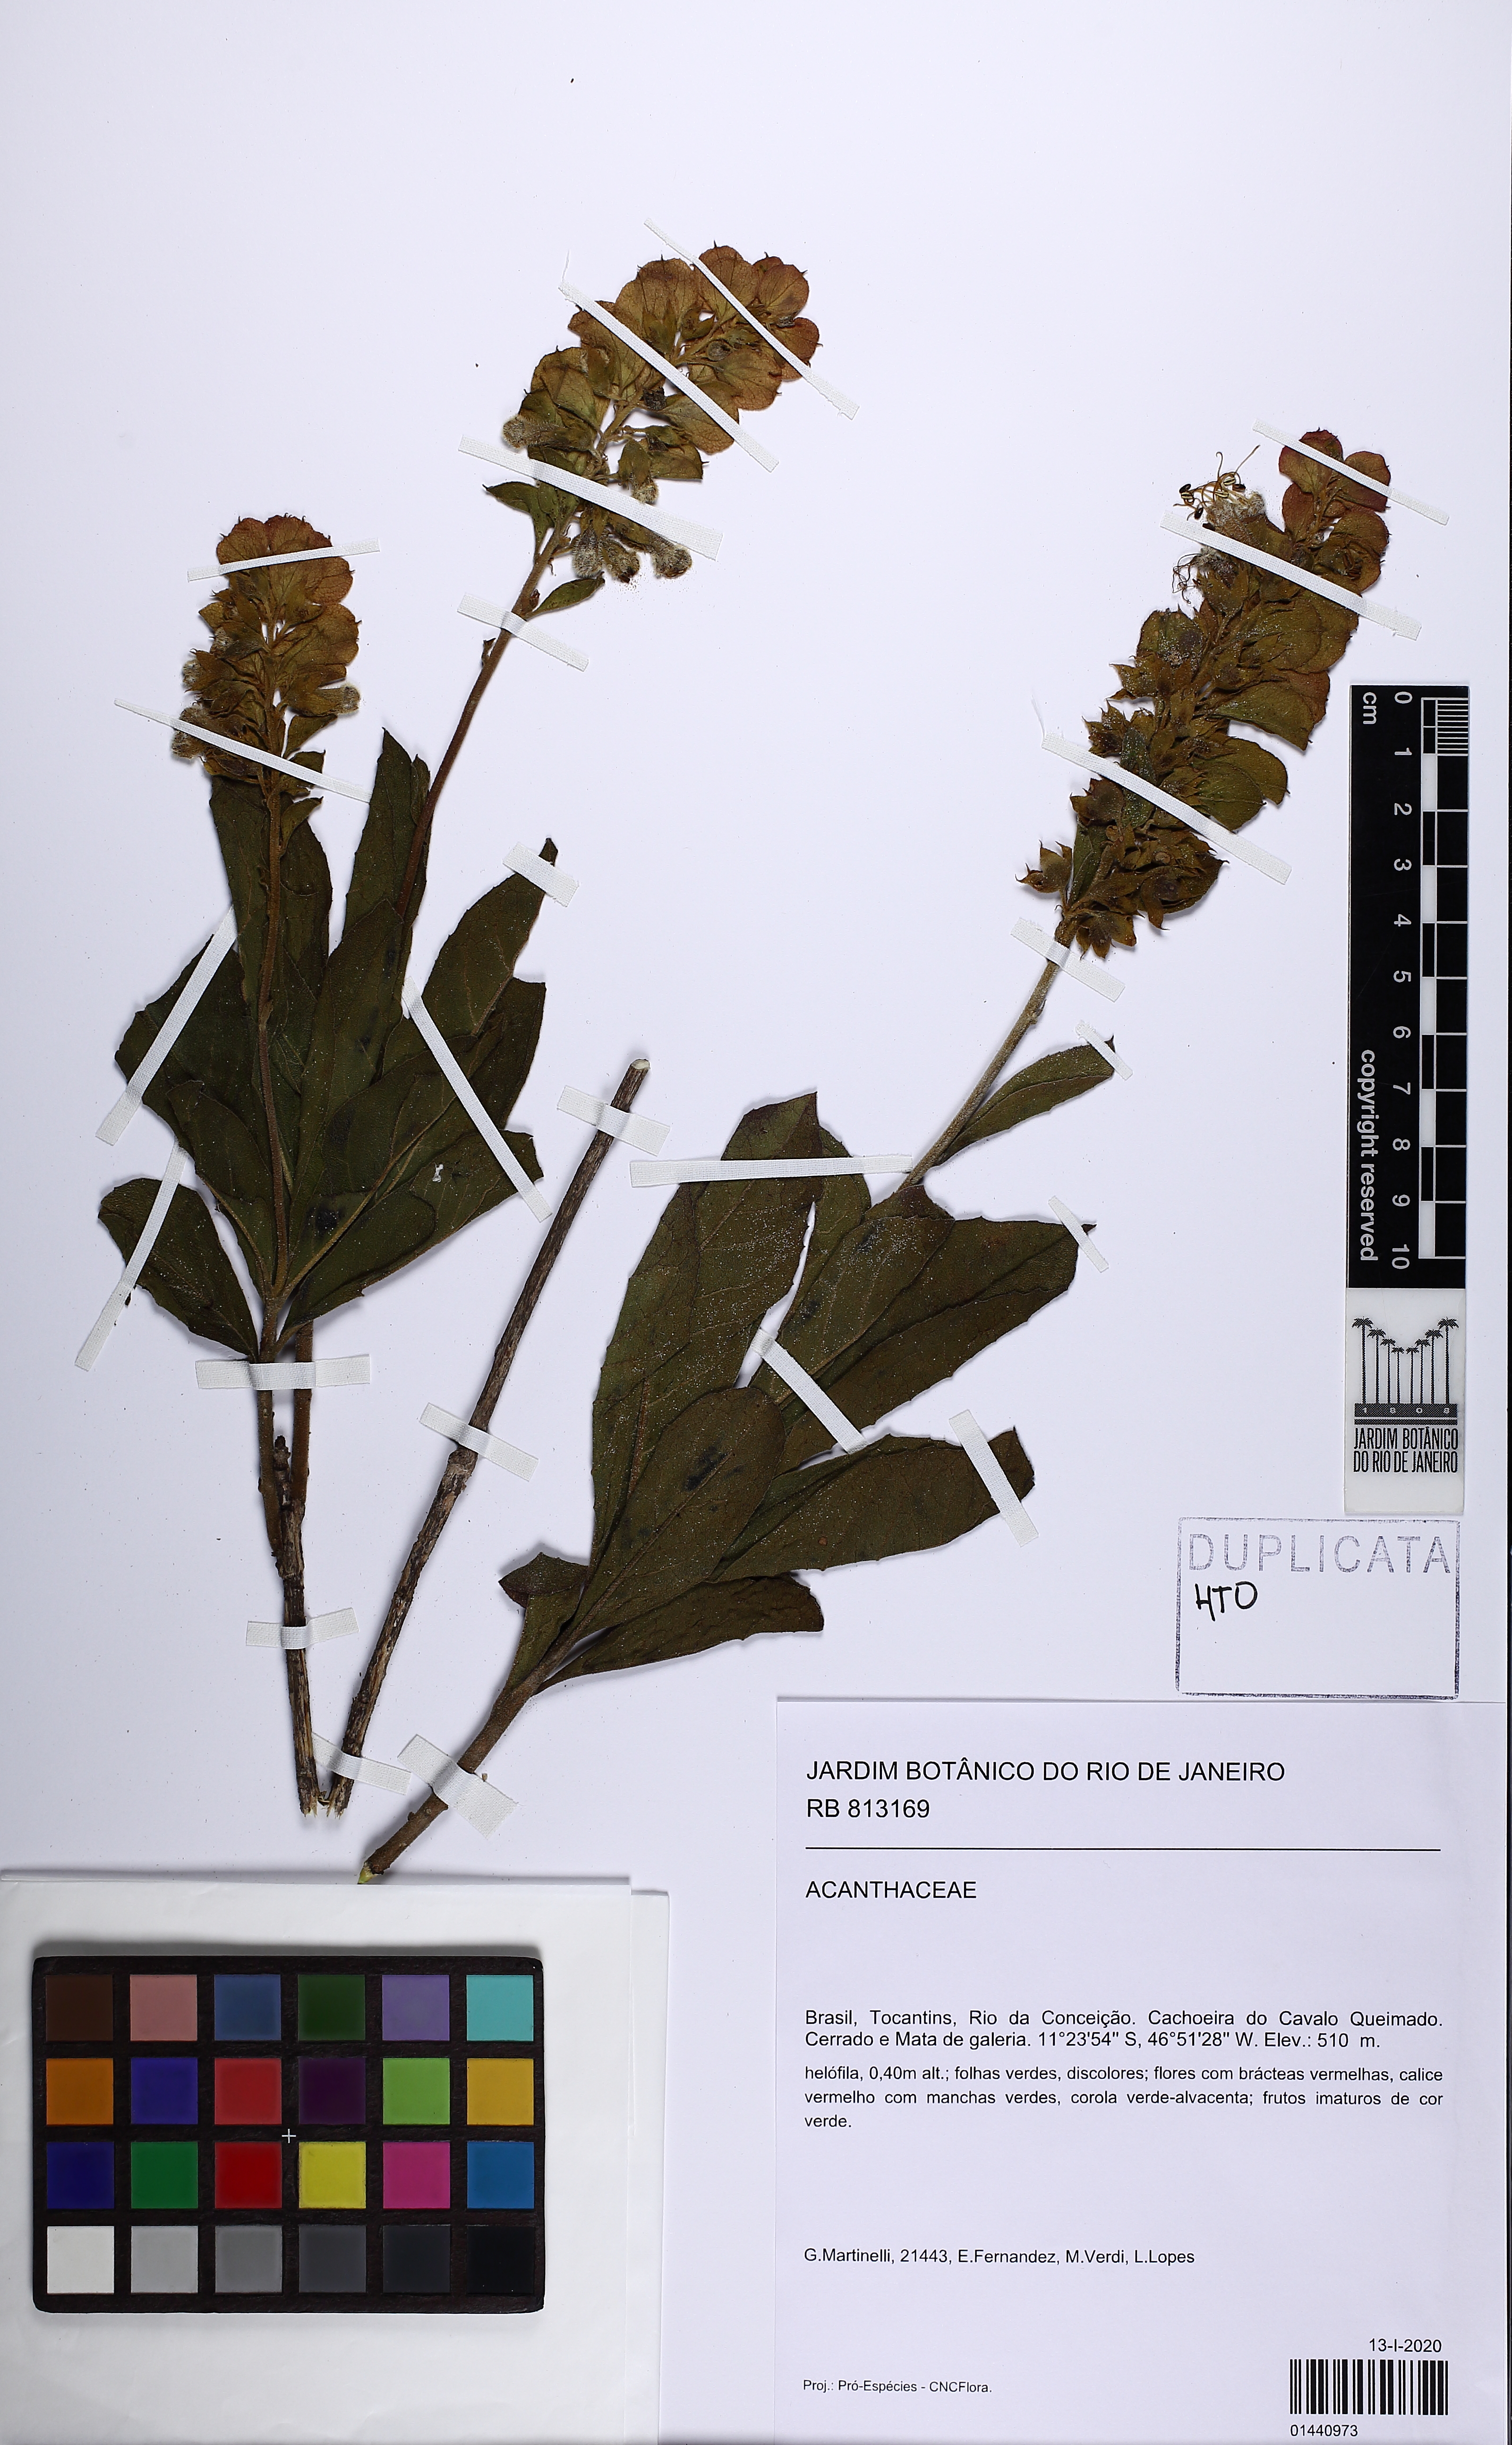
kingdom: Plantae
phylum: Tracheophyta
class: Magnoliopsida
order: Lamiales
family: Acanthaceae
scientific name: Acanthaceae
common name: Acanthaceae
